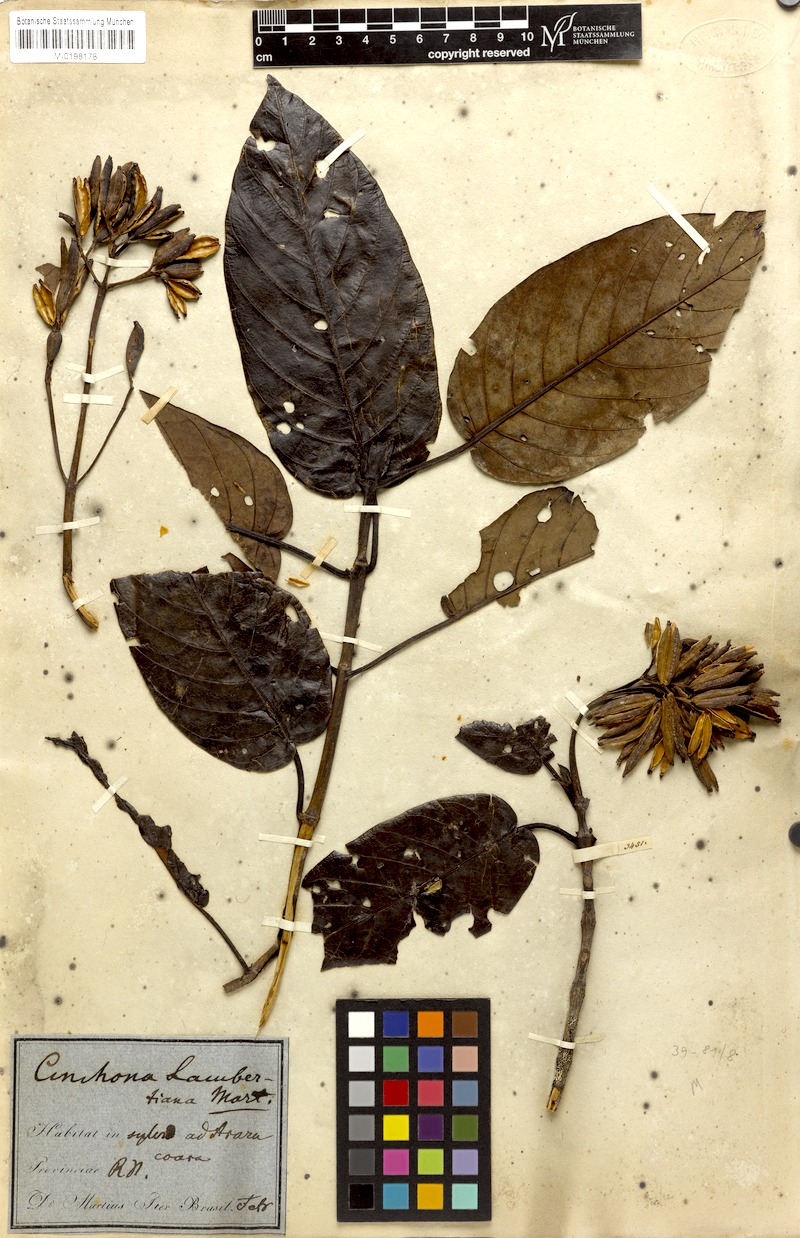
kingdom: Plantae
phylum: Tracheophyta
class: Magnoliopsida
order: Gentianales
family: Rubiaceae
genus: Ladenbergia
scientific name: Ladenbergia lambertiana
